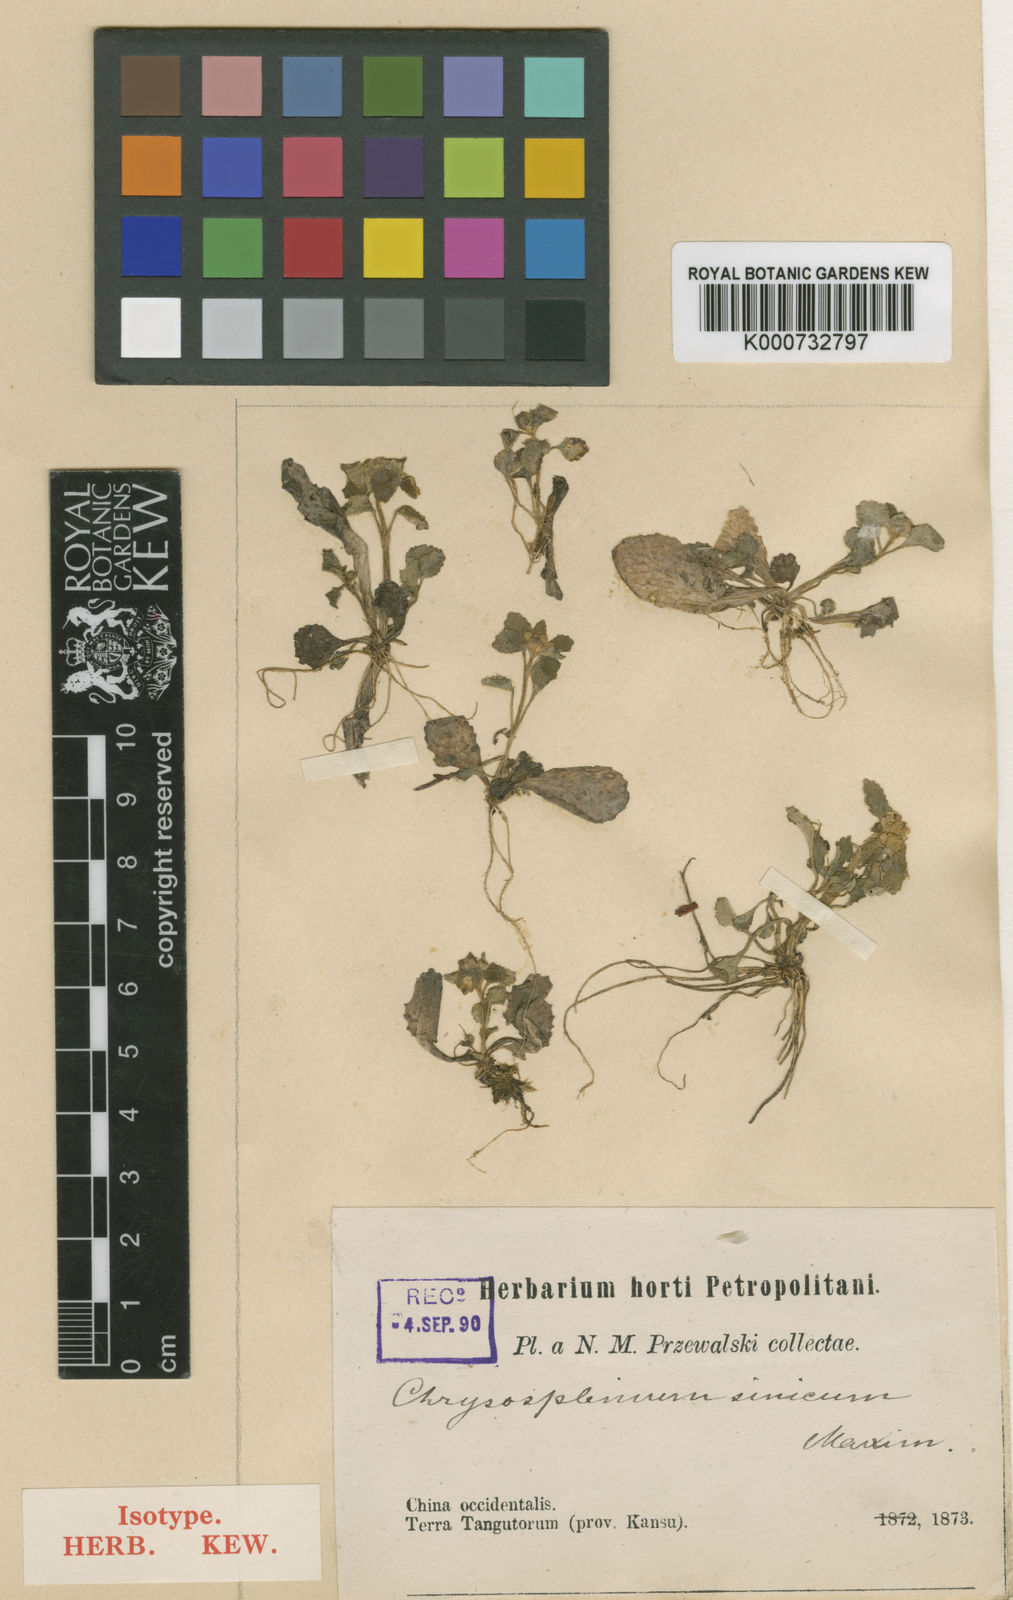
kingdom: Plantae
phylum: Tracheophyta
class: Magnoliopsida
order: Saxifragales
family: Saxifragaceae
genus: Chrysosplenium
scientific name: Chrysosplenium sinicum
